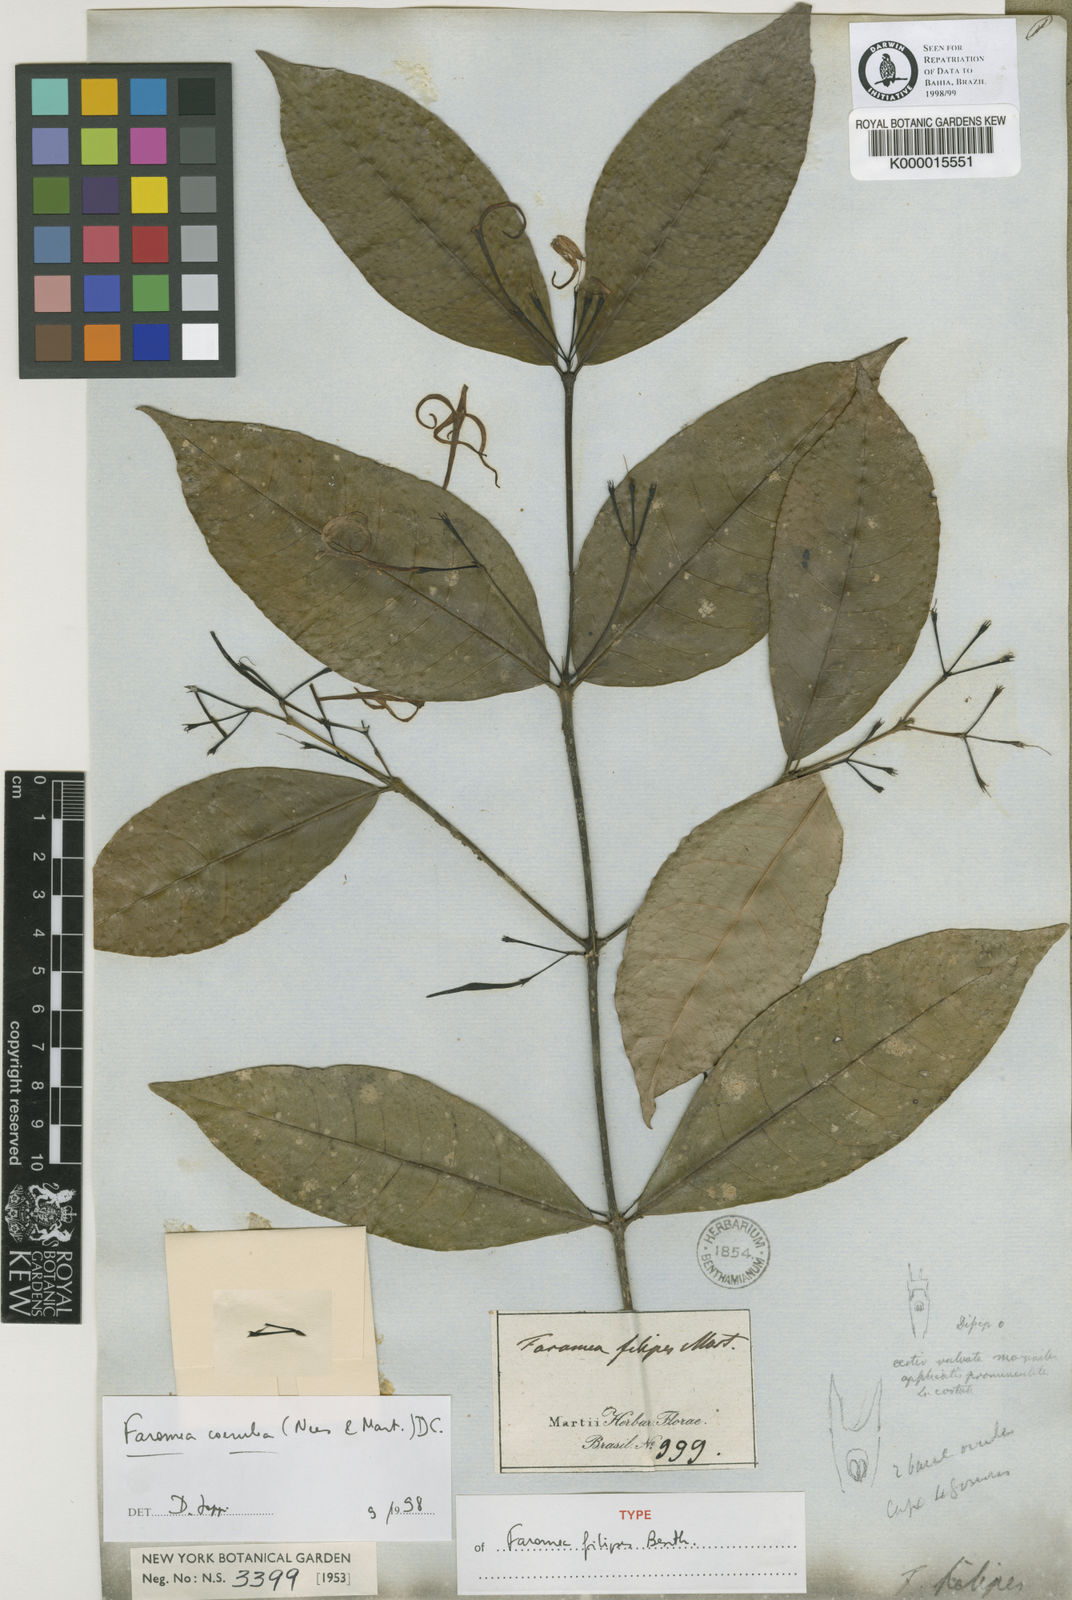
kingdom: Plantae
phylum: Tracheophyta
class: Magnoliopsida
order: Gentianales
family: Rubiaceae
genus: Faramea
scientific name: Faramea coerulea
